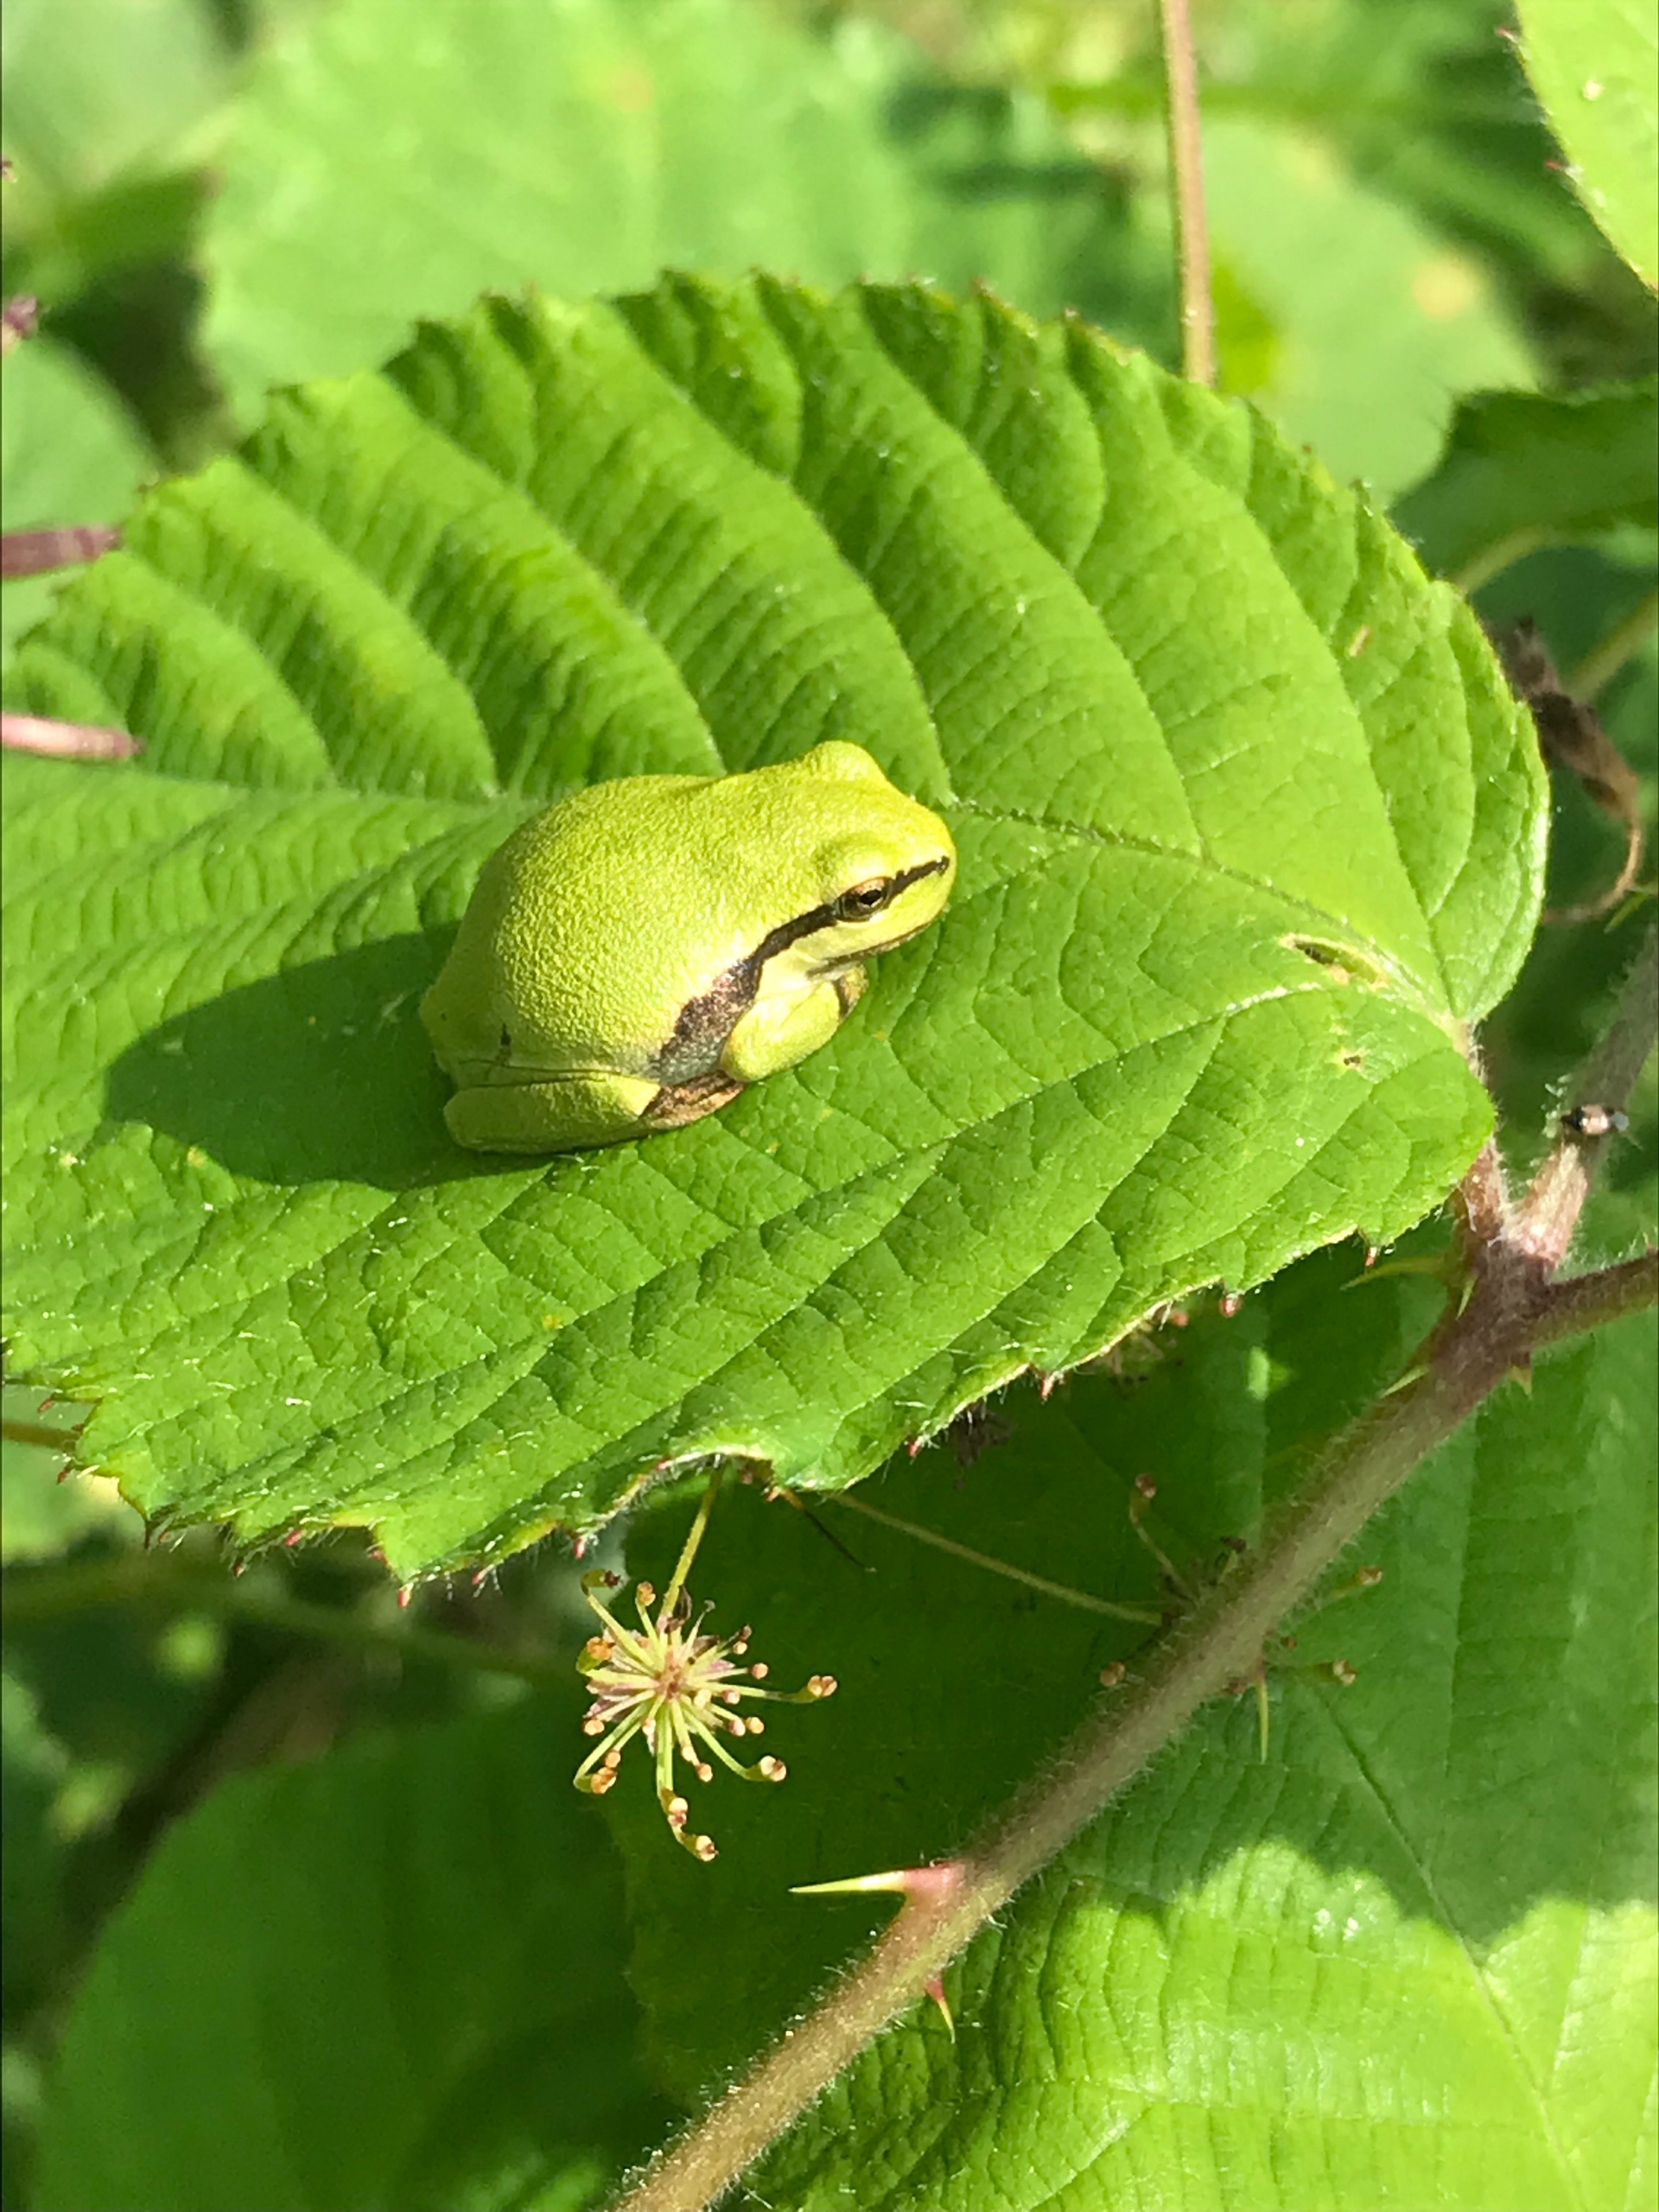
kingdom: Animalia
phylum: Chordata
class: Amphibia
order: Anura
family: Hylidae
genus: Hyla
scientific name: Hyla arborea
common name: Løvfrø
